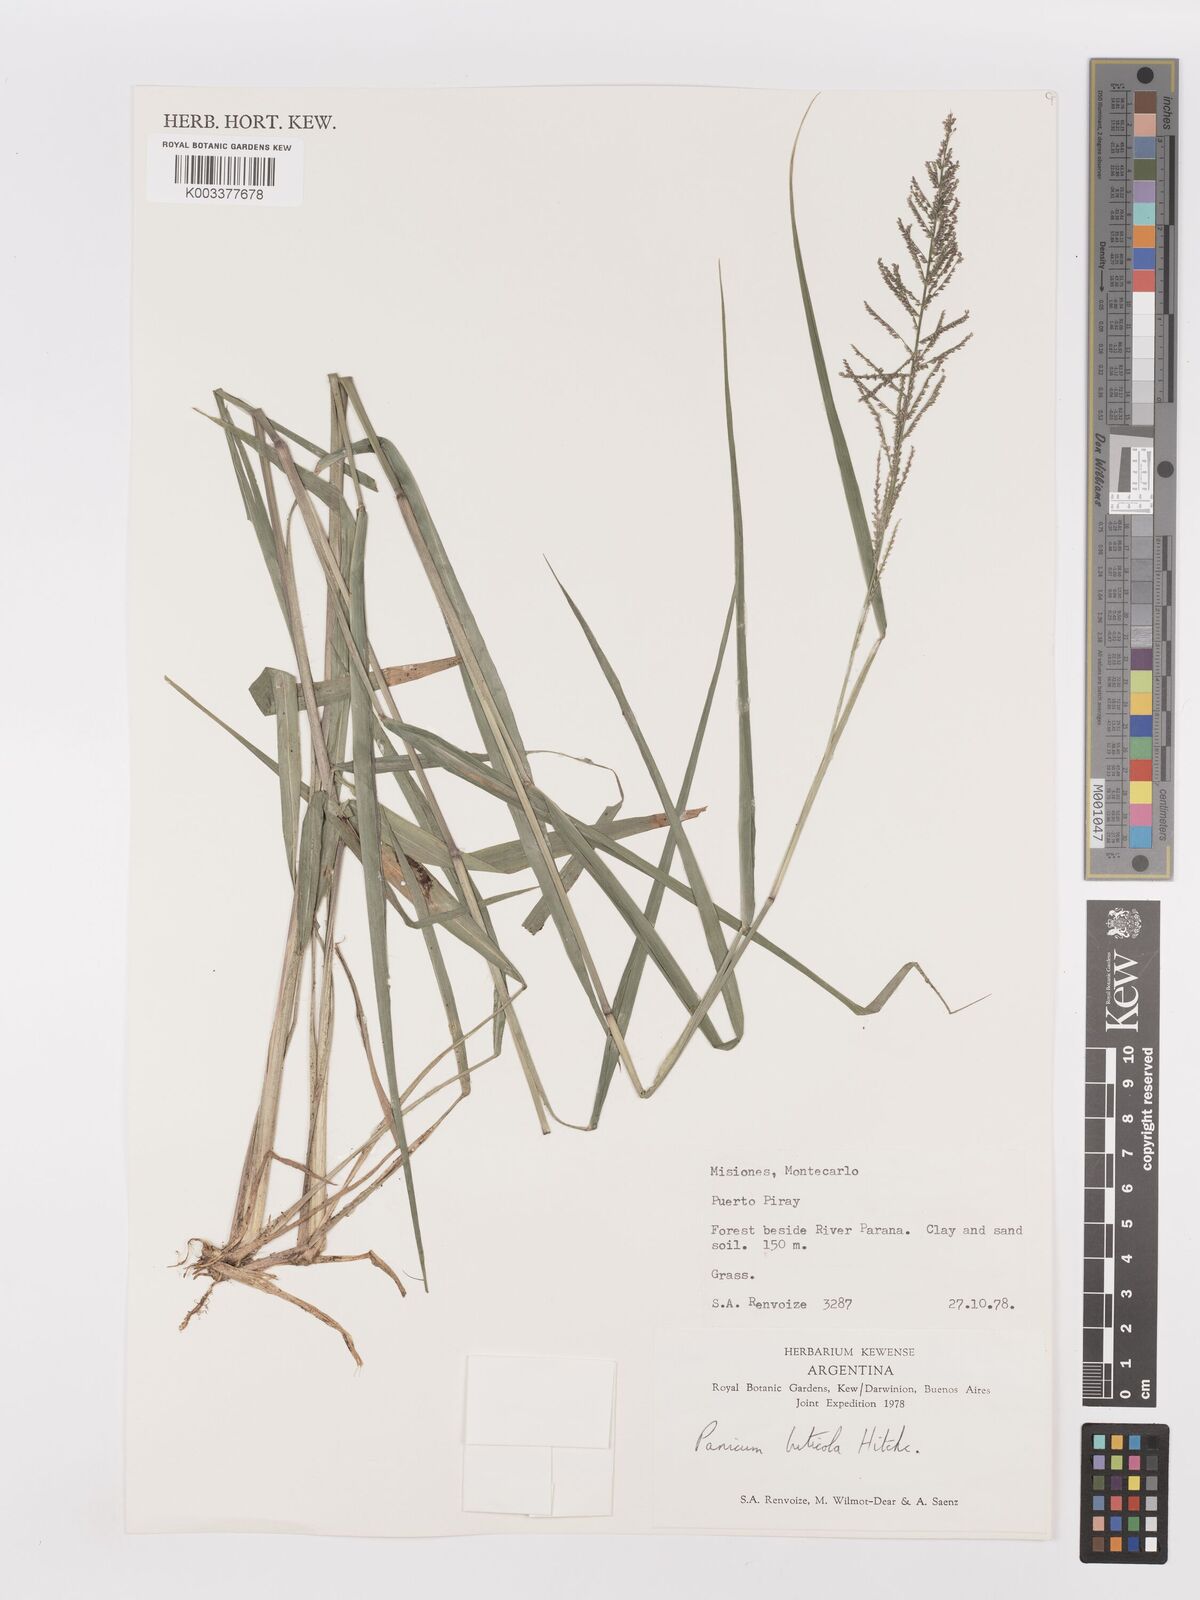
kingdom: Plantae
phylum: Tracheophyta
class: Liliopsida
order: Poales
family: Poaceae
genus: Steinchisma
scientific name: Steinchisma laxum
